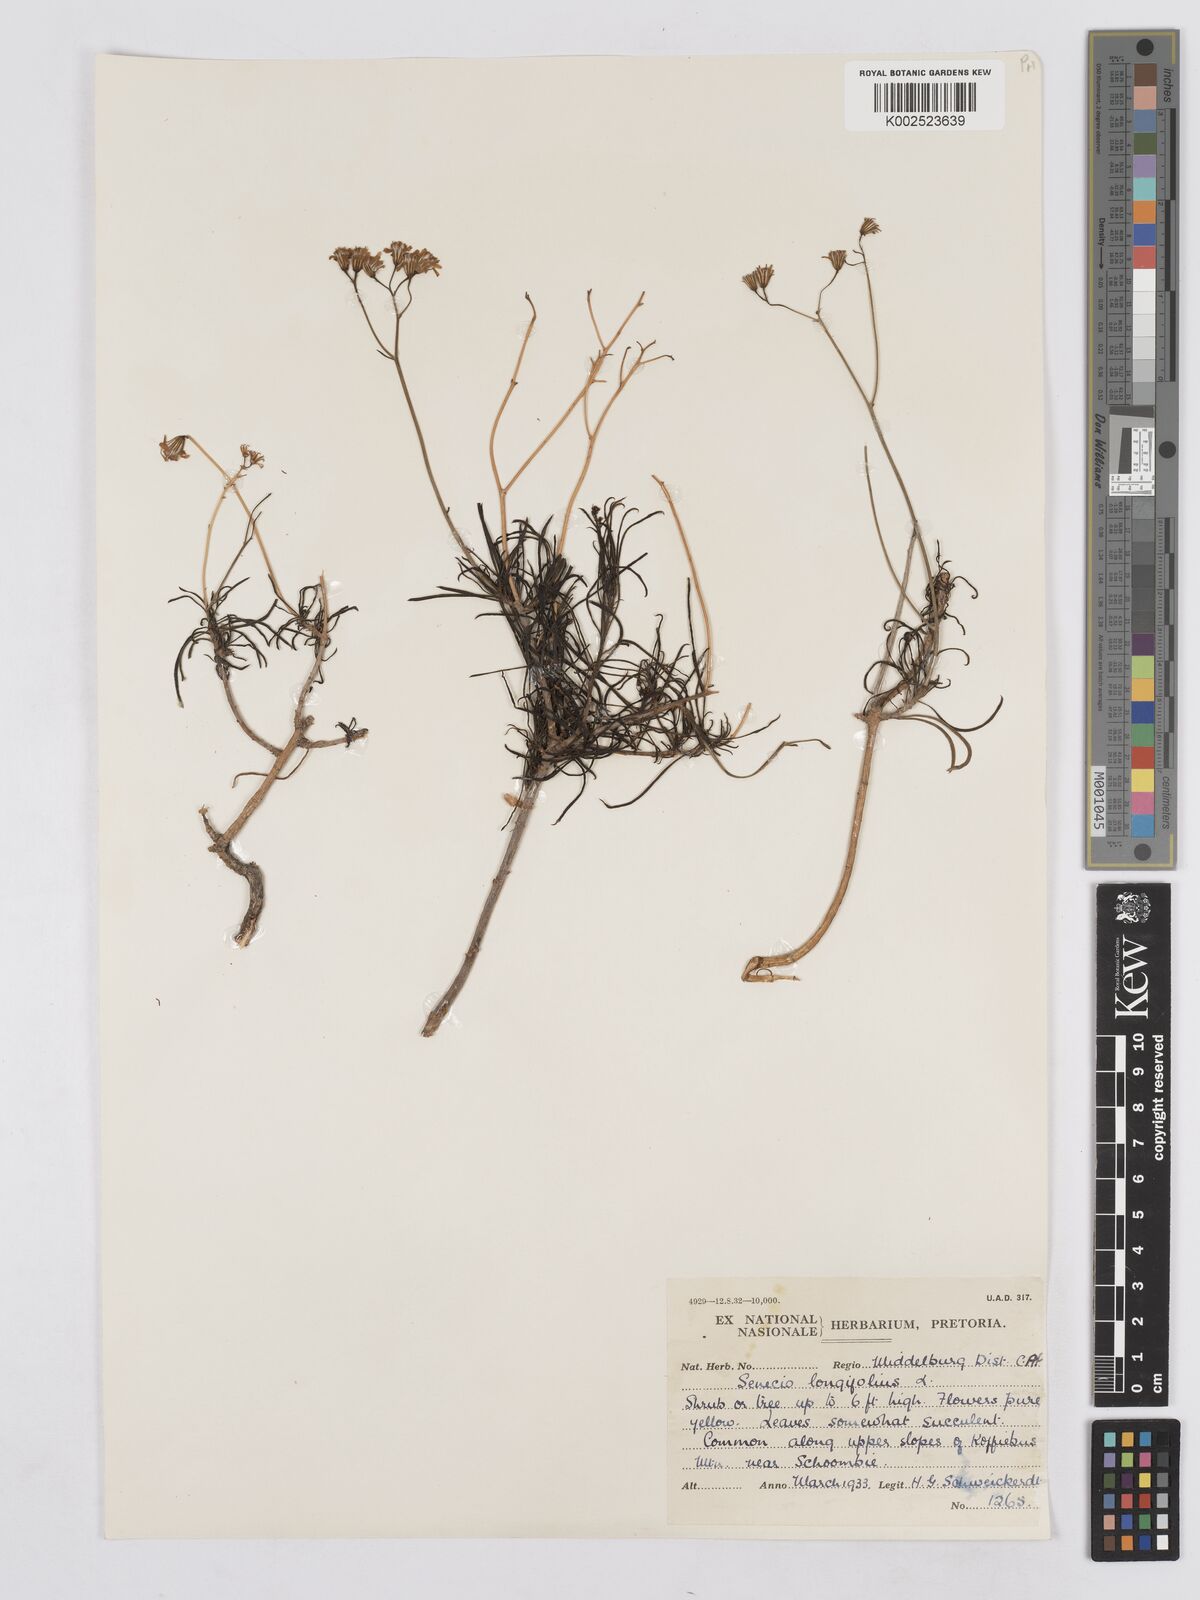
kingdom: Plantae
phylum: Tracheophyta
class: Magnoliopsida
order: Asterales
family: Asteraceae
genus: Senecio
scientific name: Senecio linifolius
